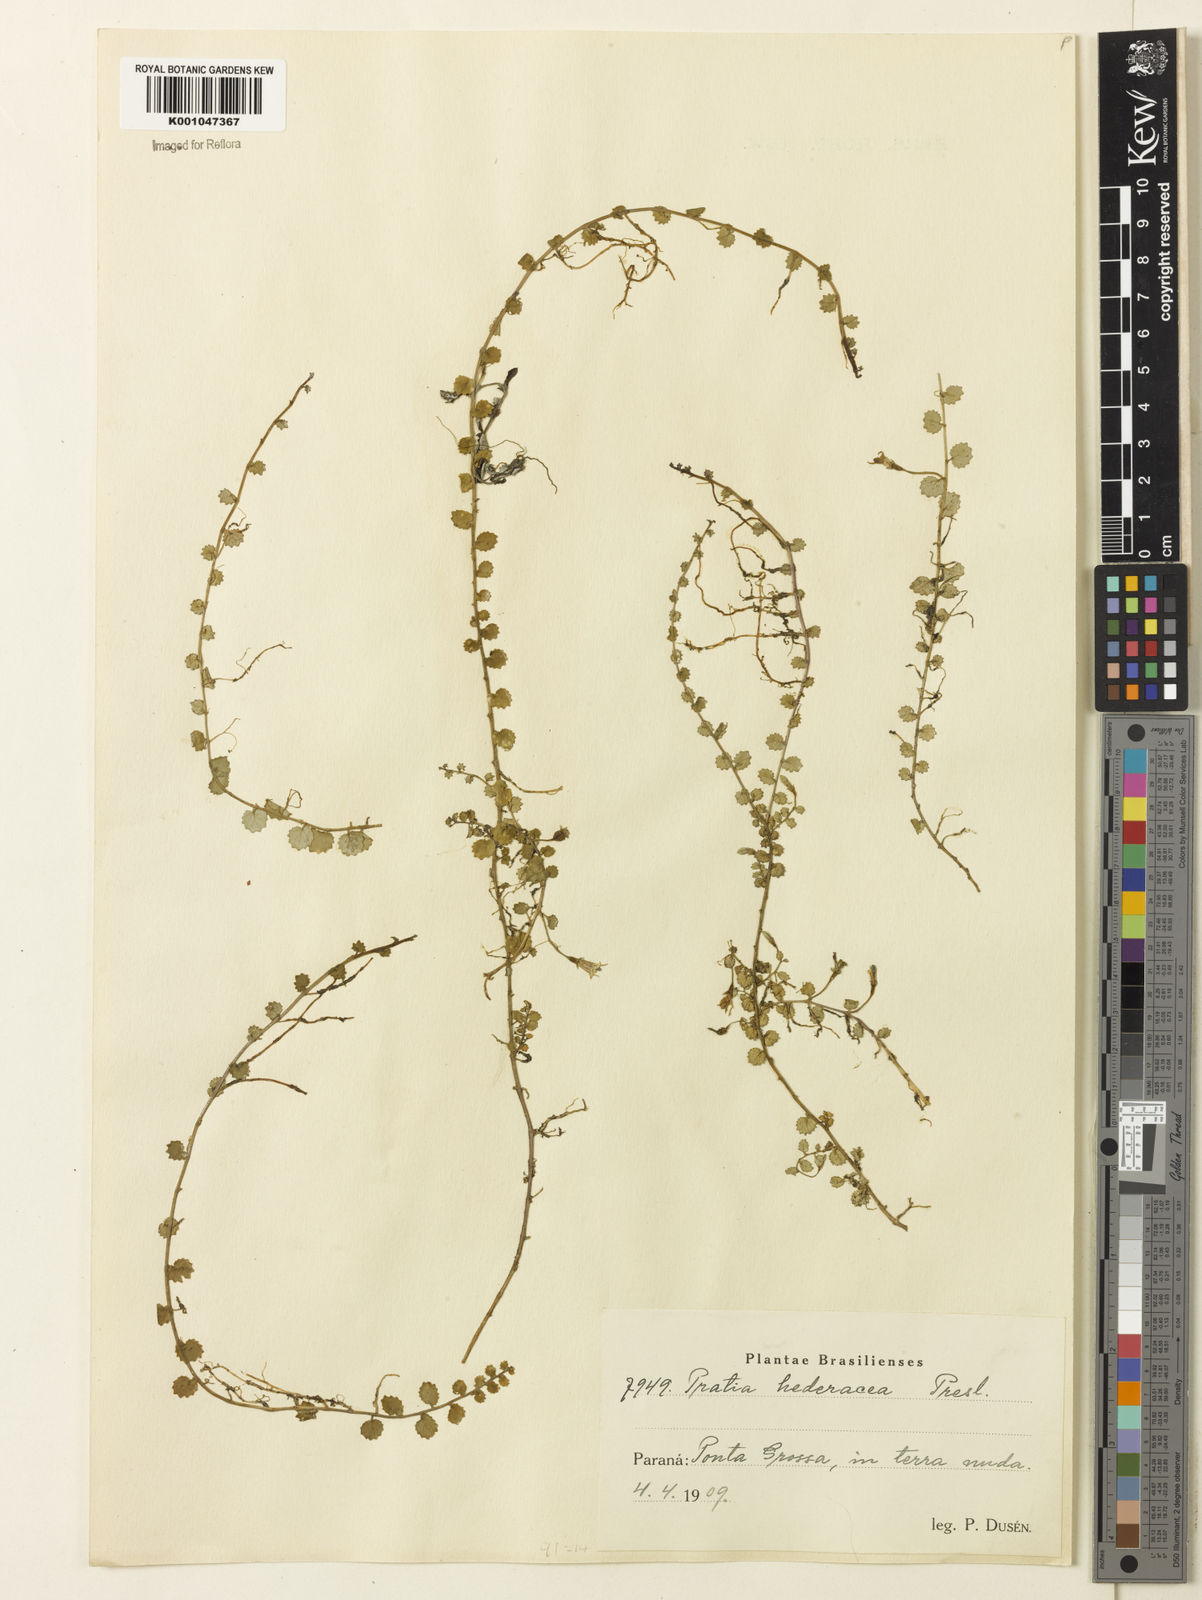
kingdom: Plantae
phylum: Tracheophyta
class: Magnoliopsida
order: Asterales
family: Campanulaceae
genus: Pratia
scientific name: Pratia
